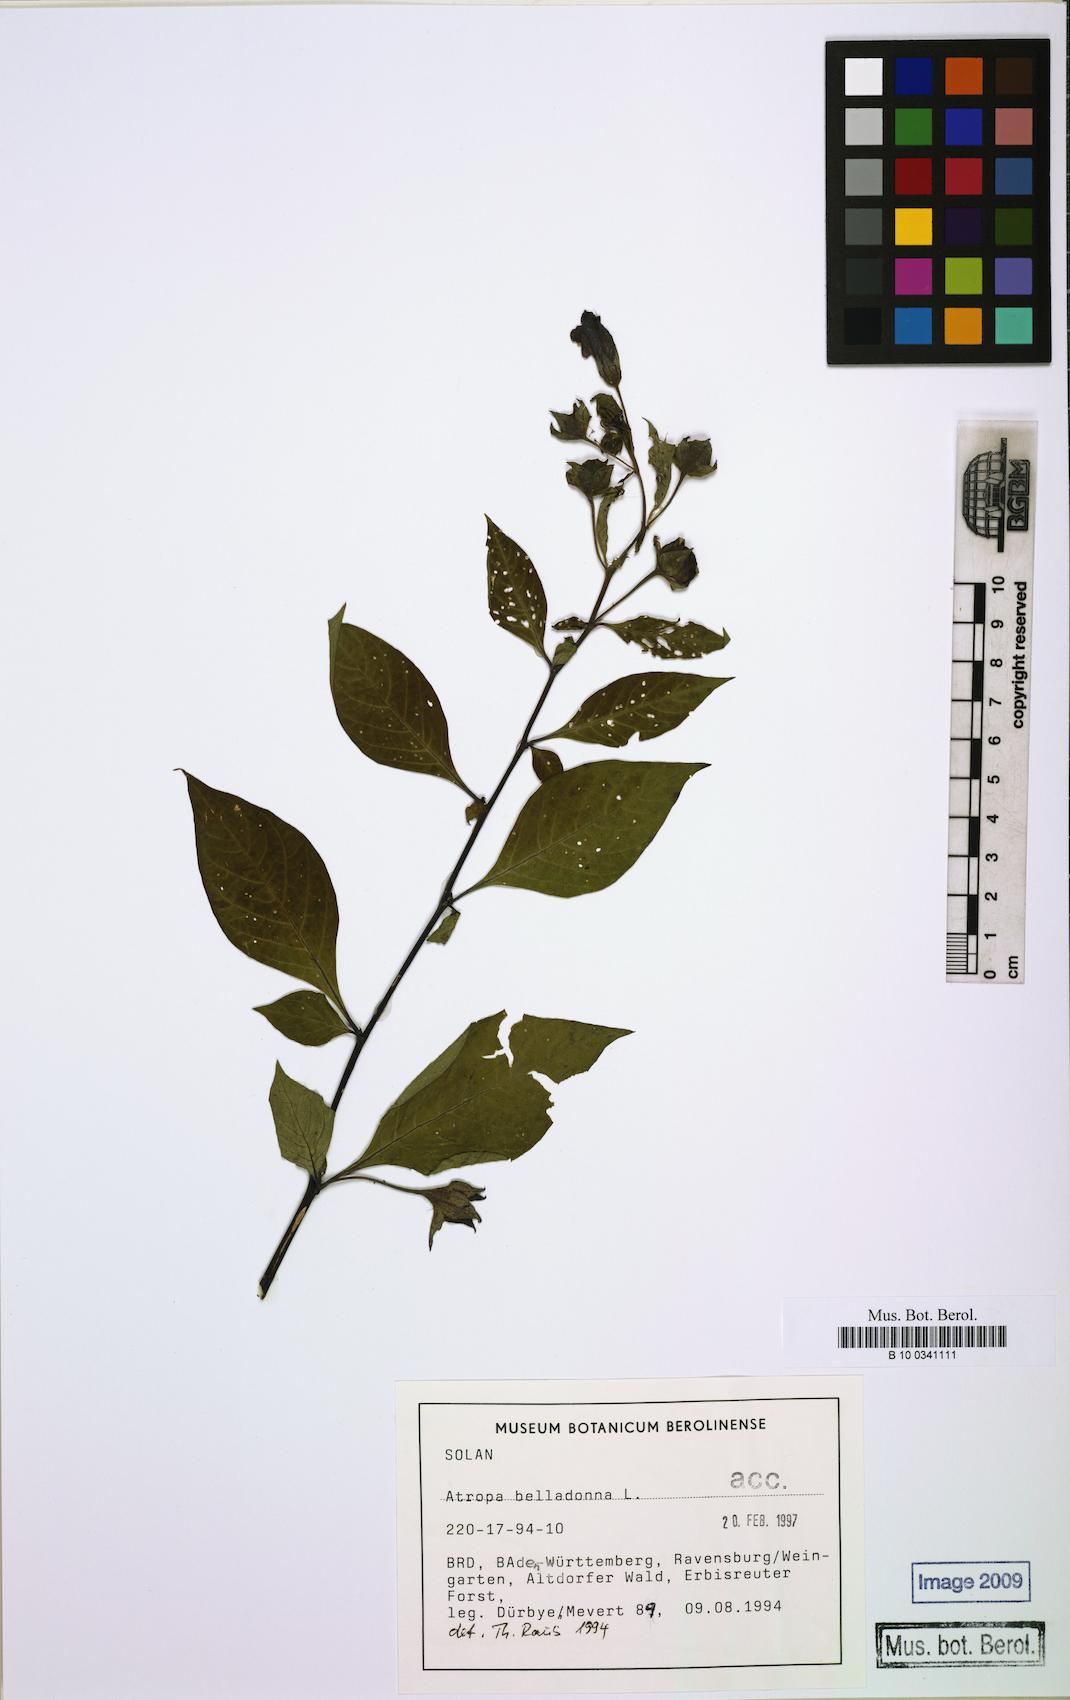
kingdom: Plantae
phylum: Tracheophyta
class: Magnoliopsida
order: Solanales
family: Solanaceae
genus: Atropa
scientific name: Atropa belladonna
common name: Deadly nightshade
